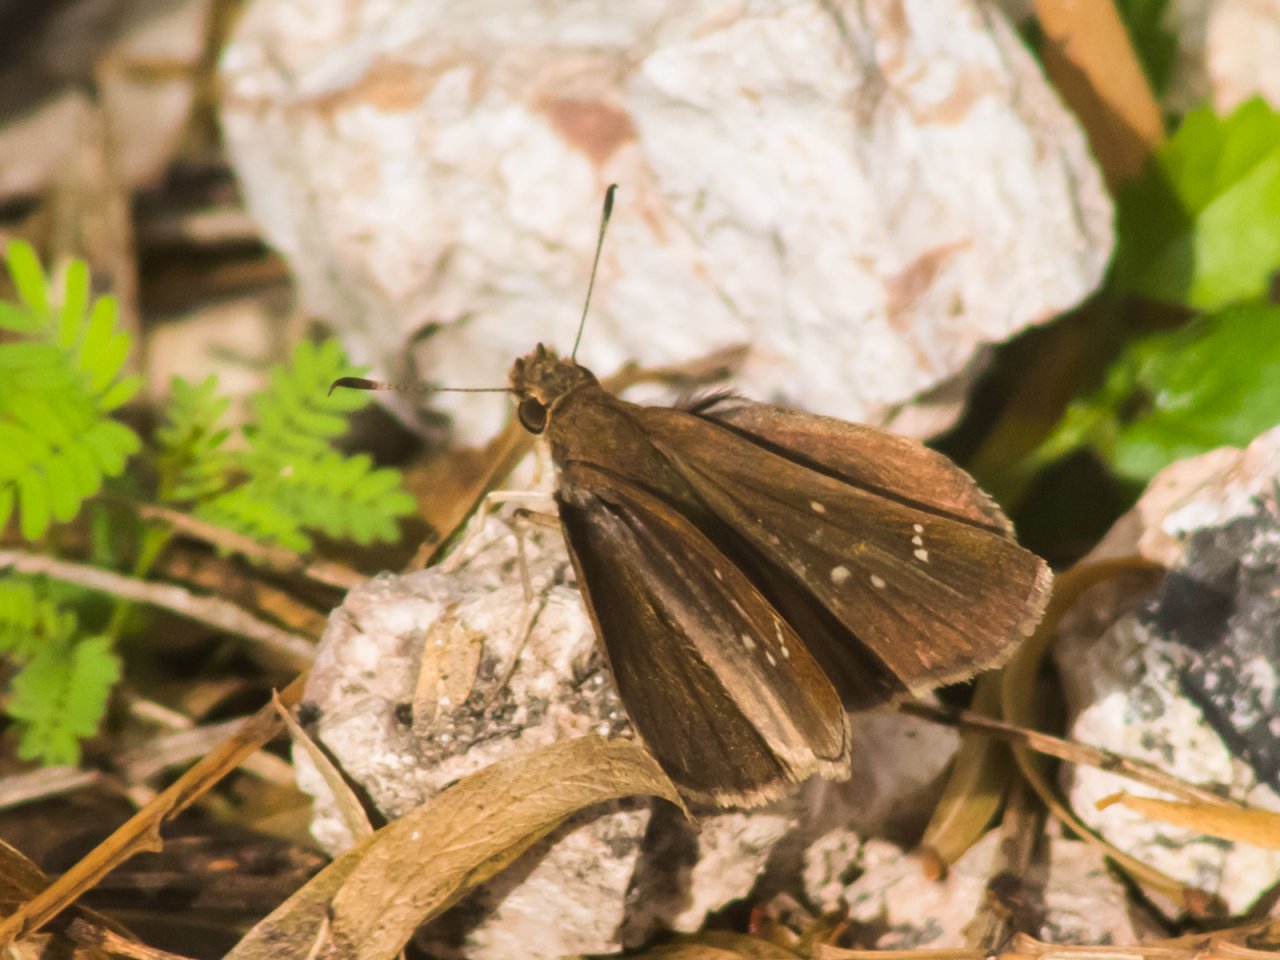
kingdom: Animalia
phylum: Arthropoda
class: Insecta
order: Lepidoptera
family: Hesperiidae
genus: Lerema
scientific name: Lerema accius
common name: Clouded Skipper
